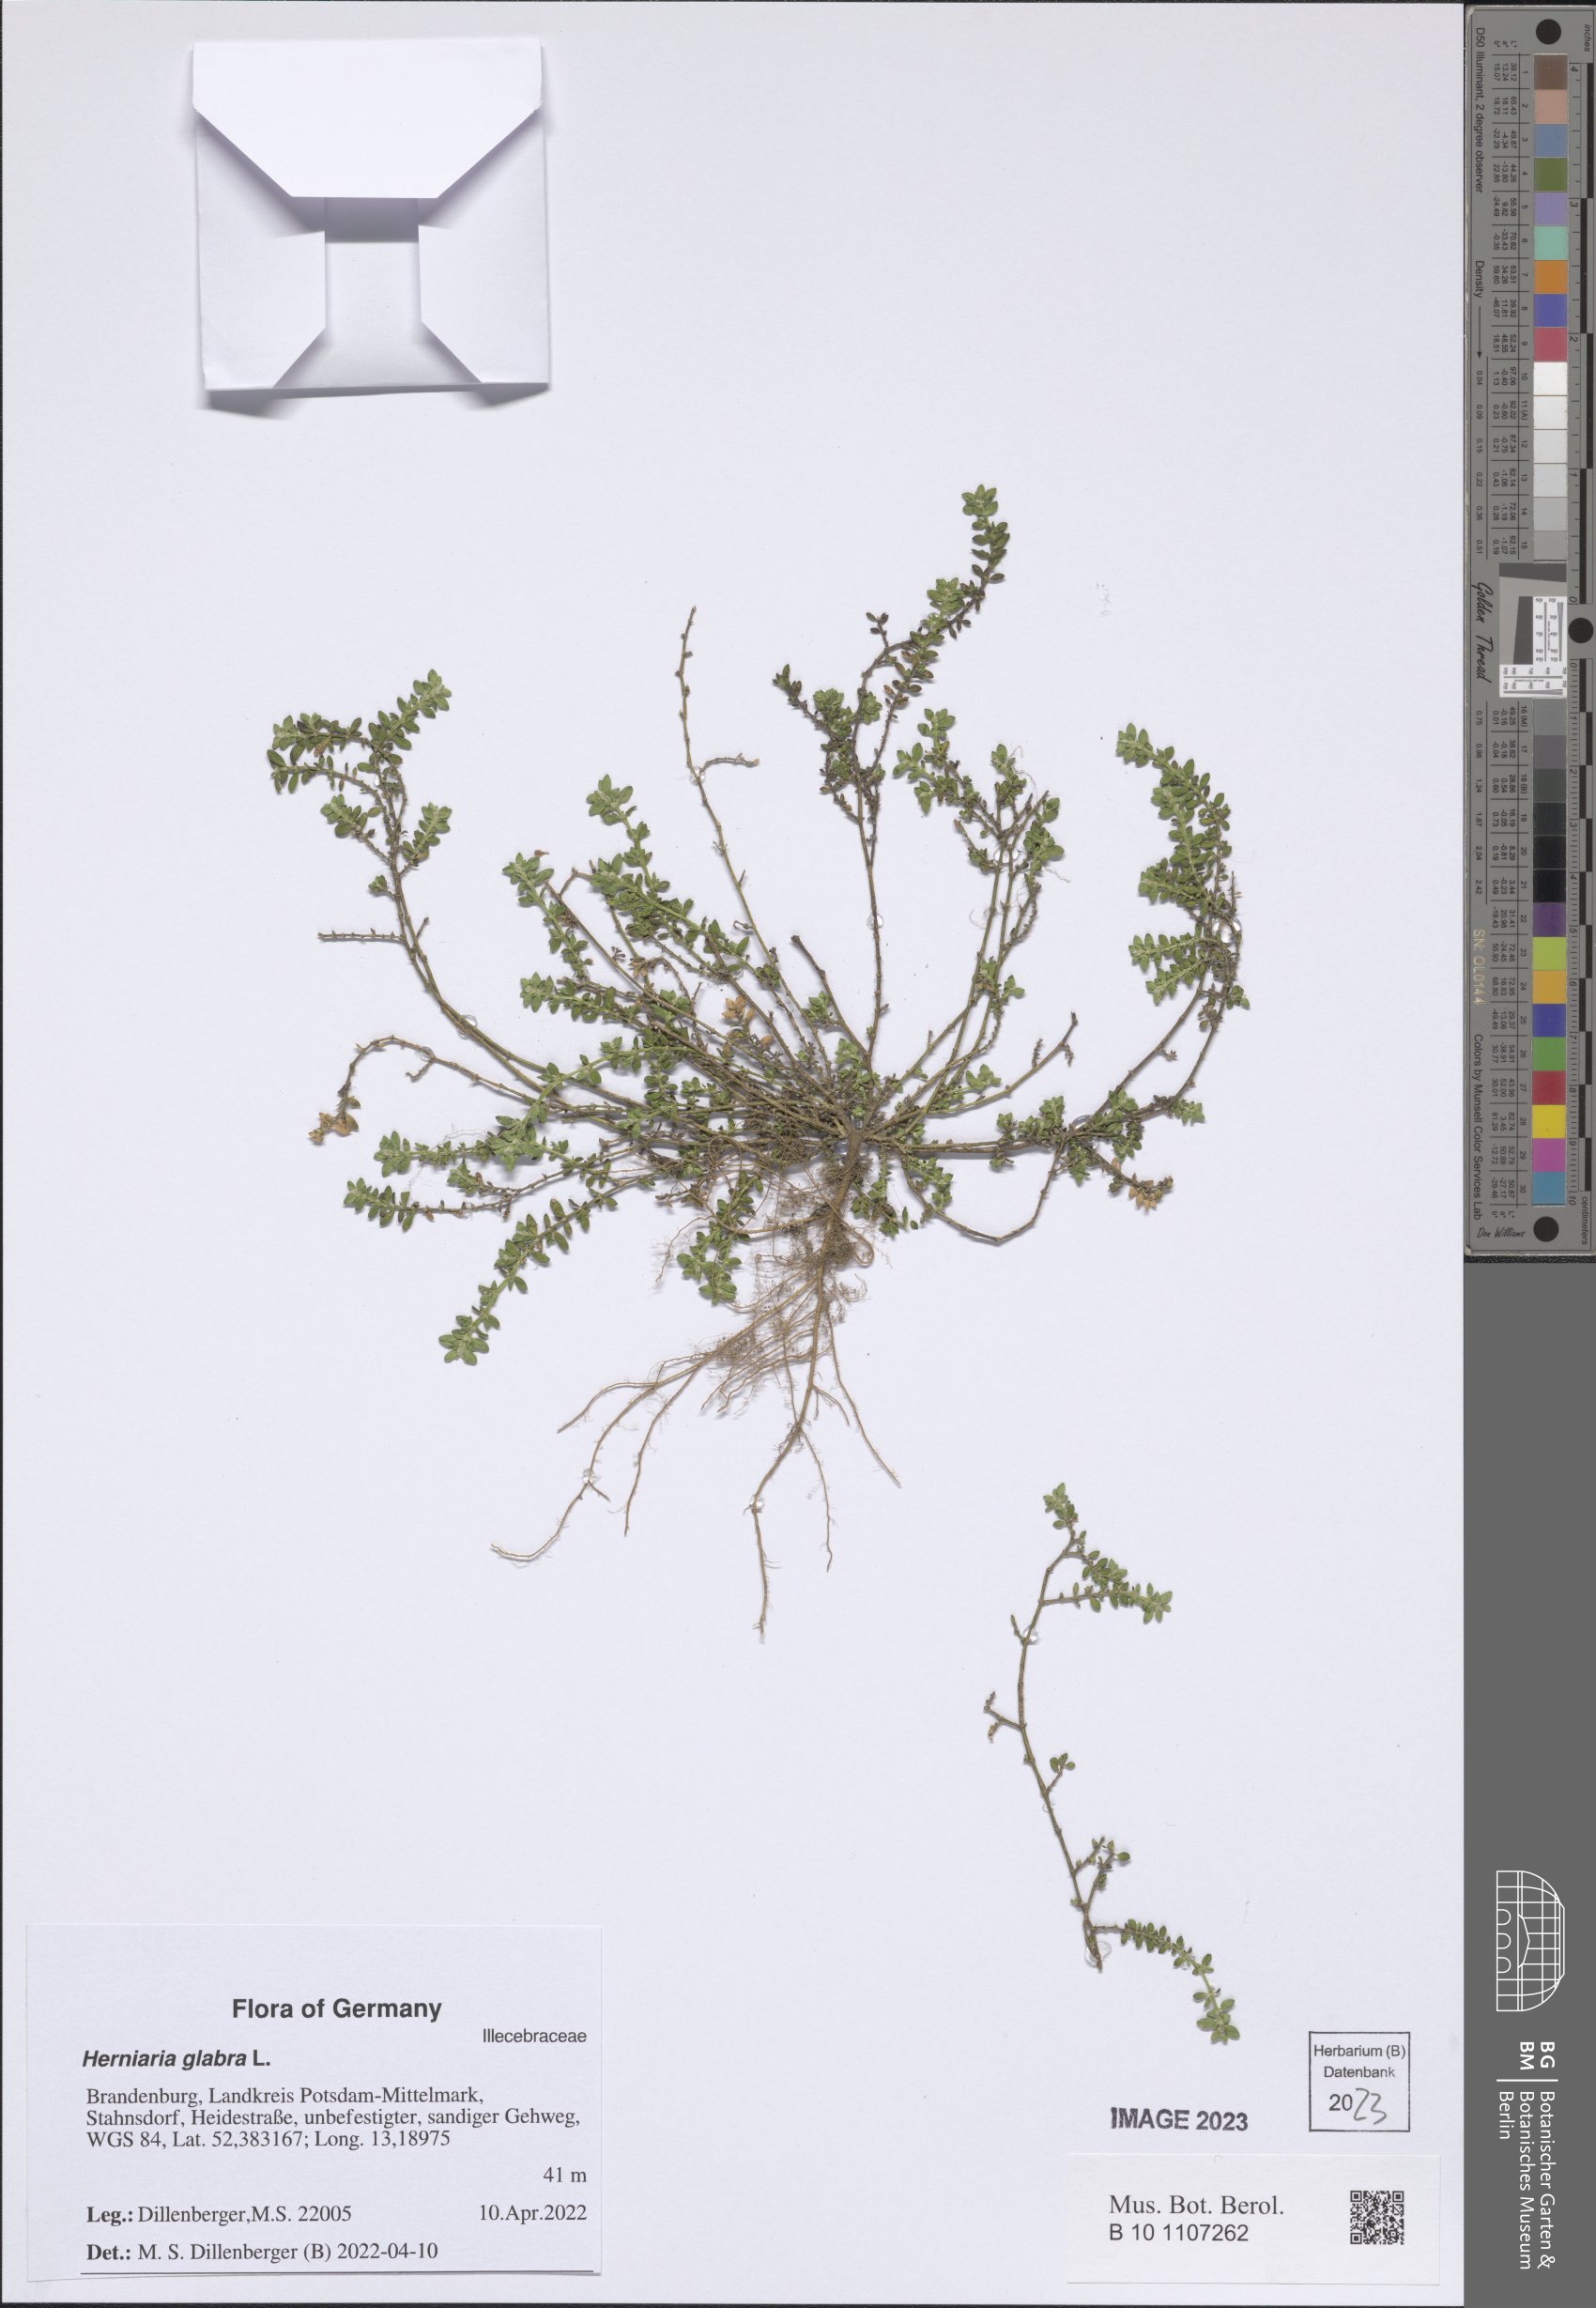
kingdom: Plantae
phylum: Tracheophyta
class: Magnoliopsida
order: Caryophyllales
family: Caryophyllaceae
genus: Herniaria
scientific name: Herniaria glabra
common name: Smooth rupturewort
